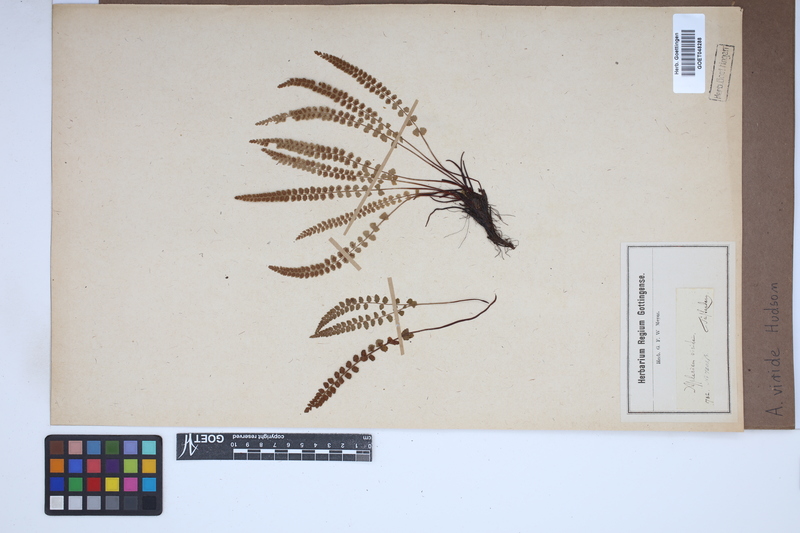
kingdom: Plantae
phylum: Tracheophyta
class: Polypodiopsida
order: Polypodiales
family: Aspleniaceae
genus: Asplenium
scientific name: Asplenium viride
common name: Green spleenwort
